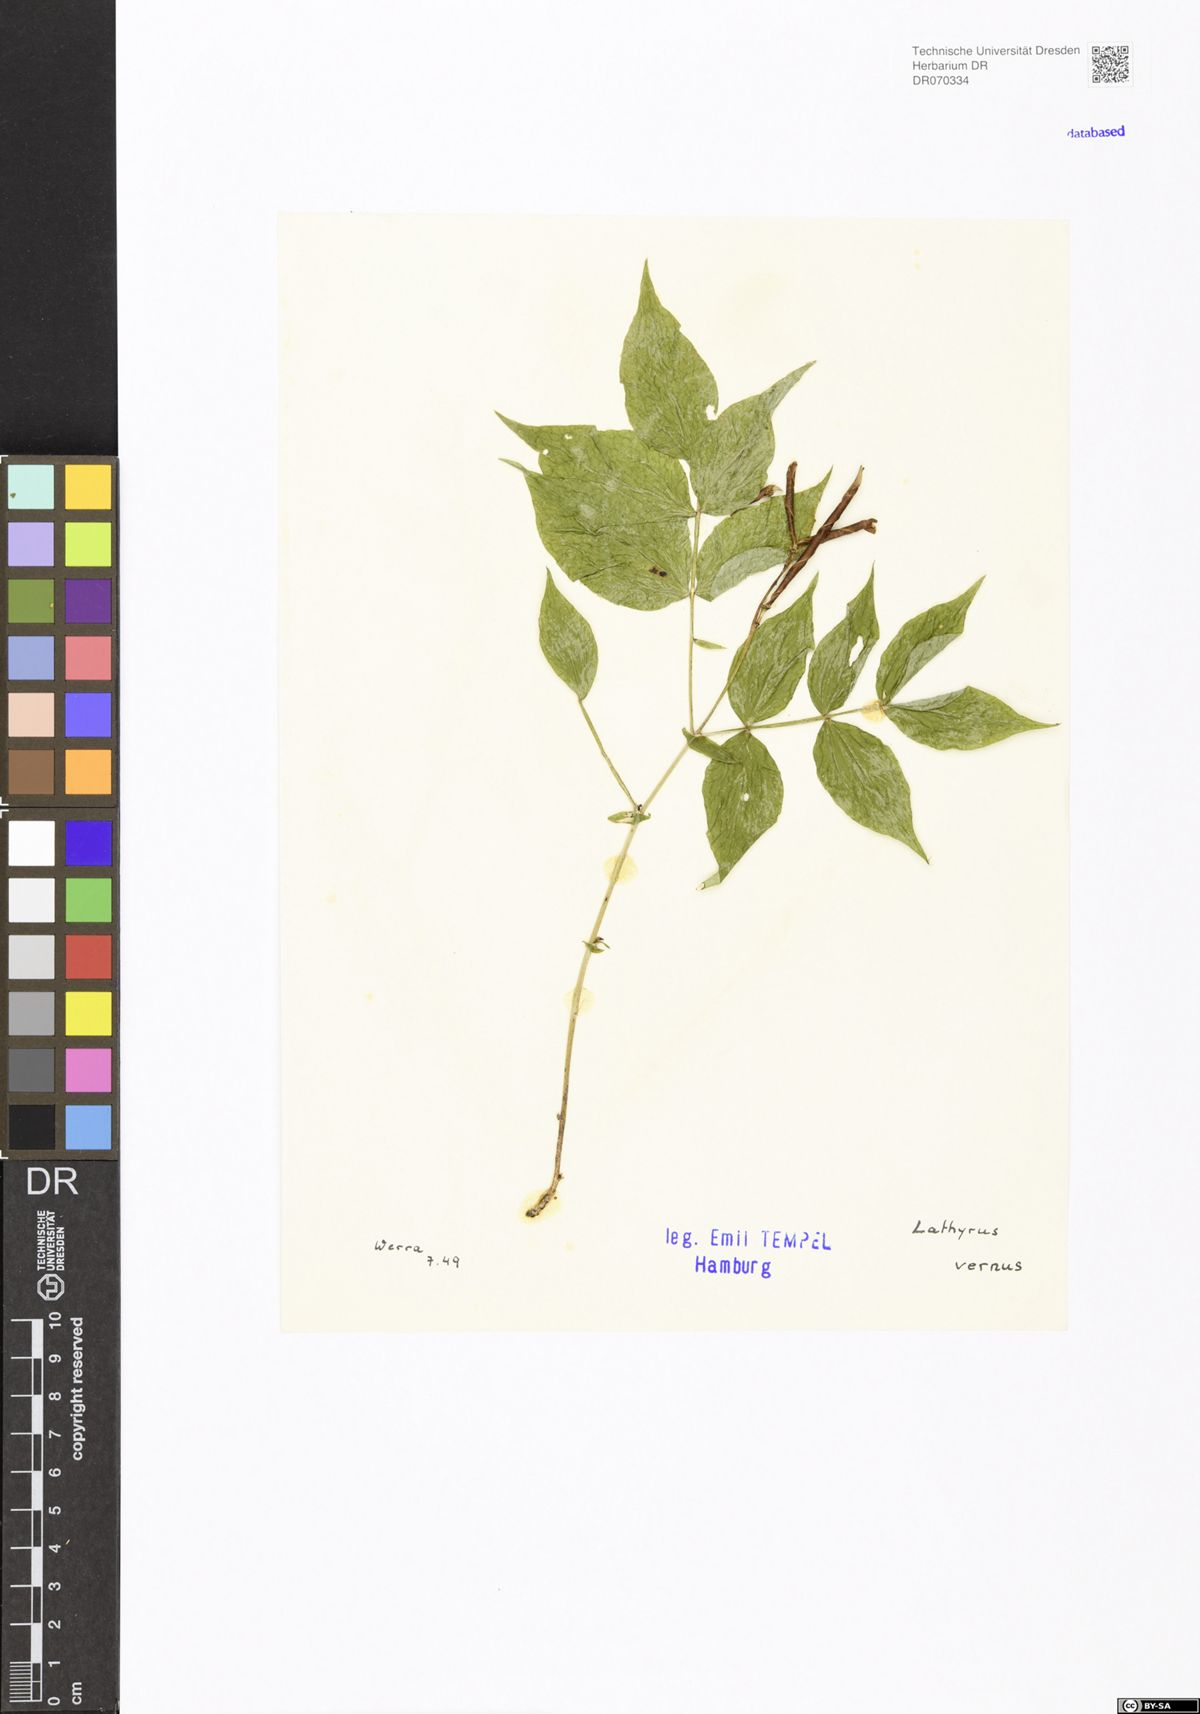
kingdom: Plantae
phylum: Tracheophyta
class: Magnoliopsida
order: Fabales
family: Fabaceae
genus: Lathyrus
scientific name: Lathyrus vernus
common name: Spring pea
